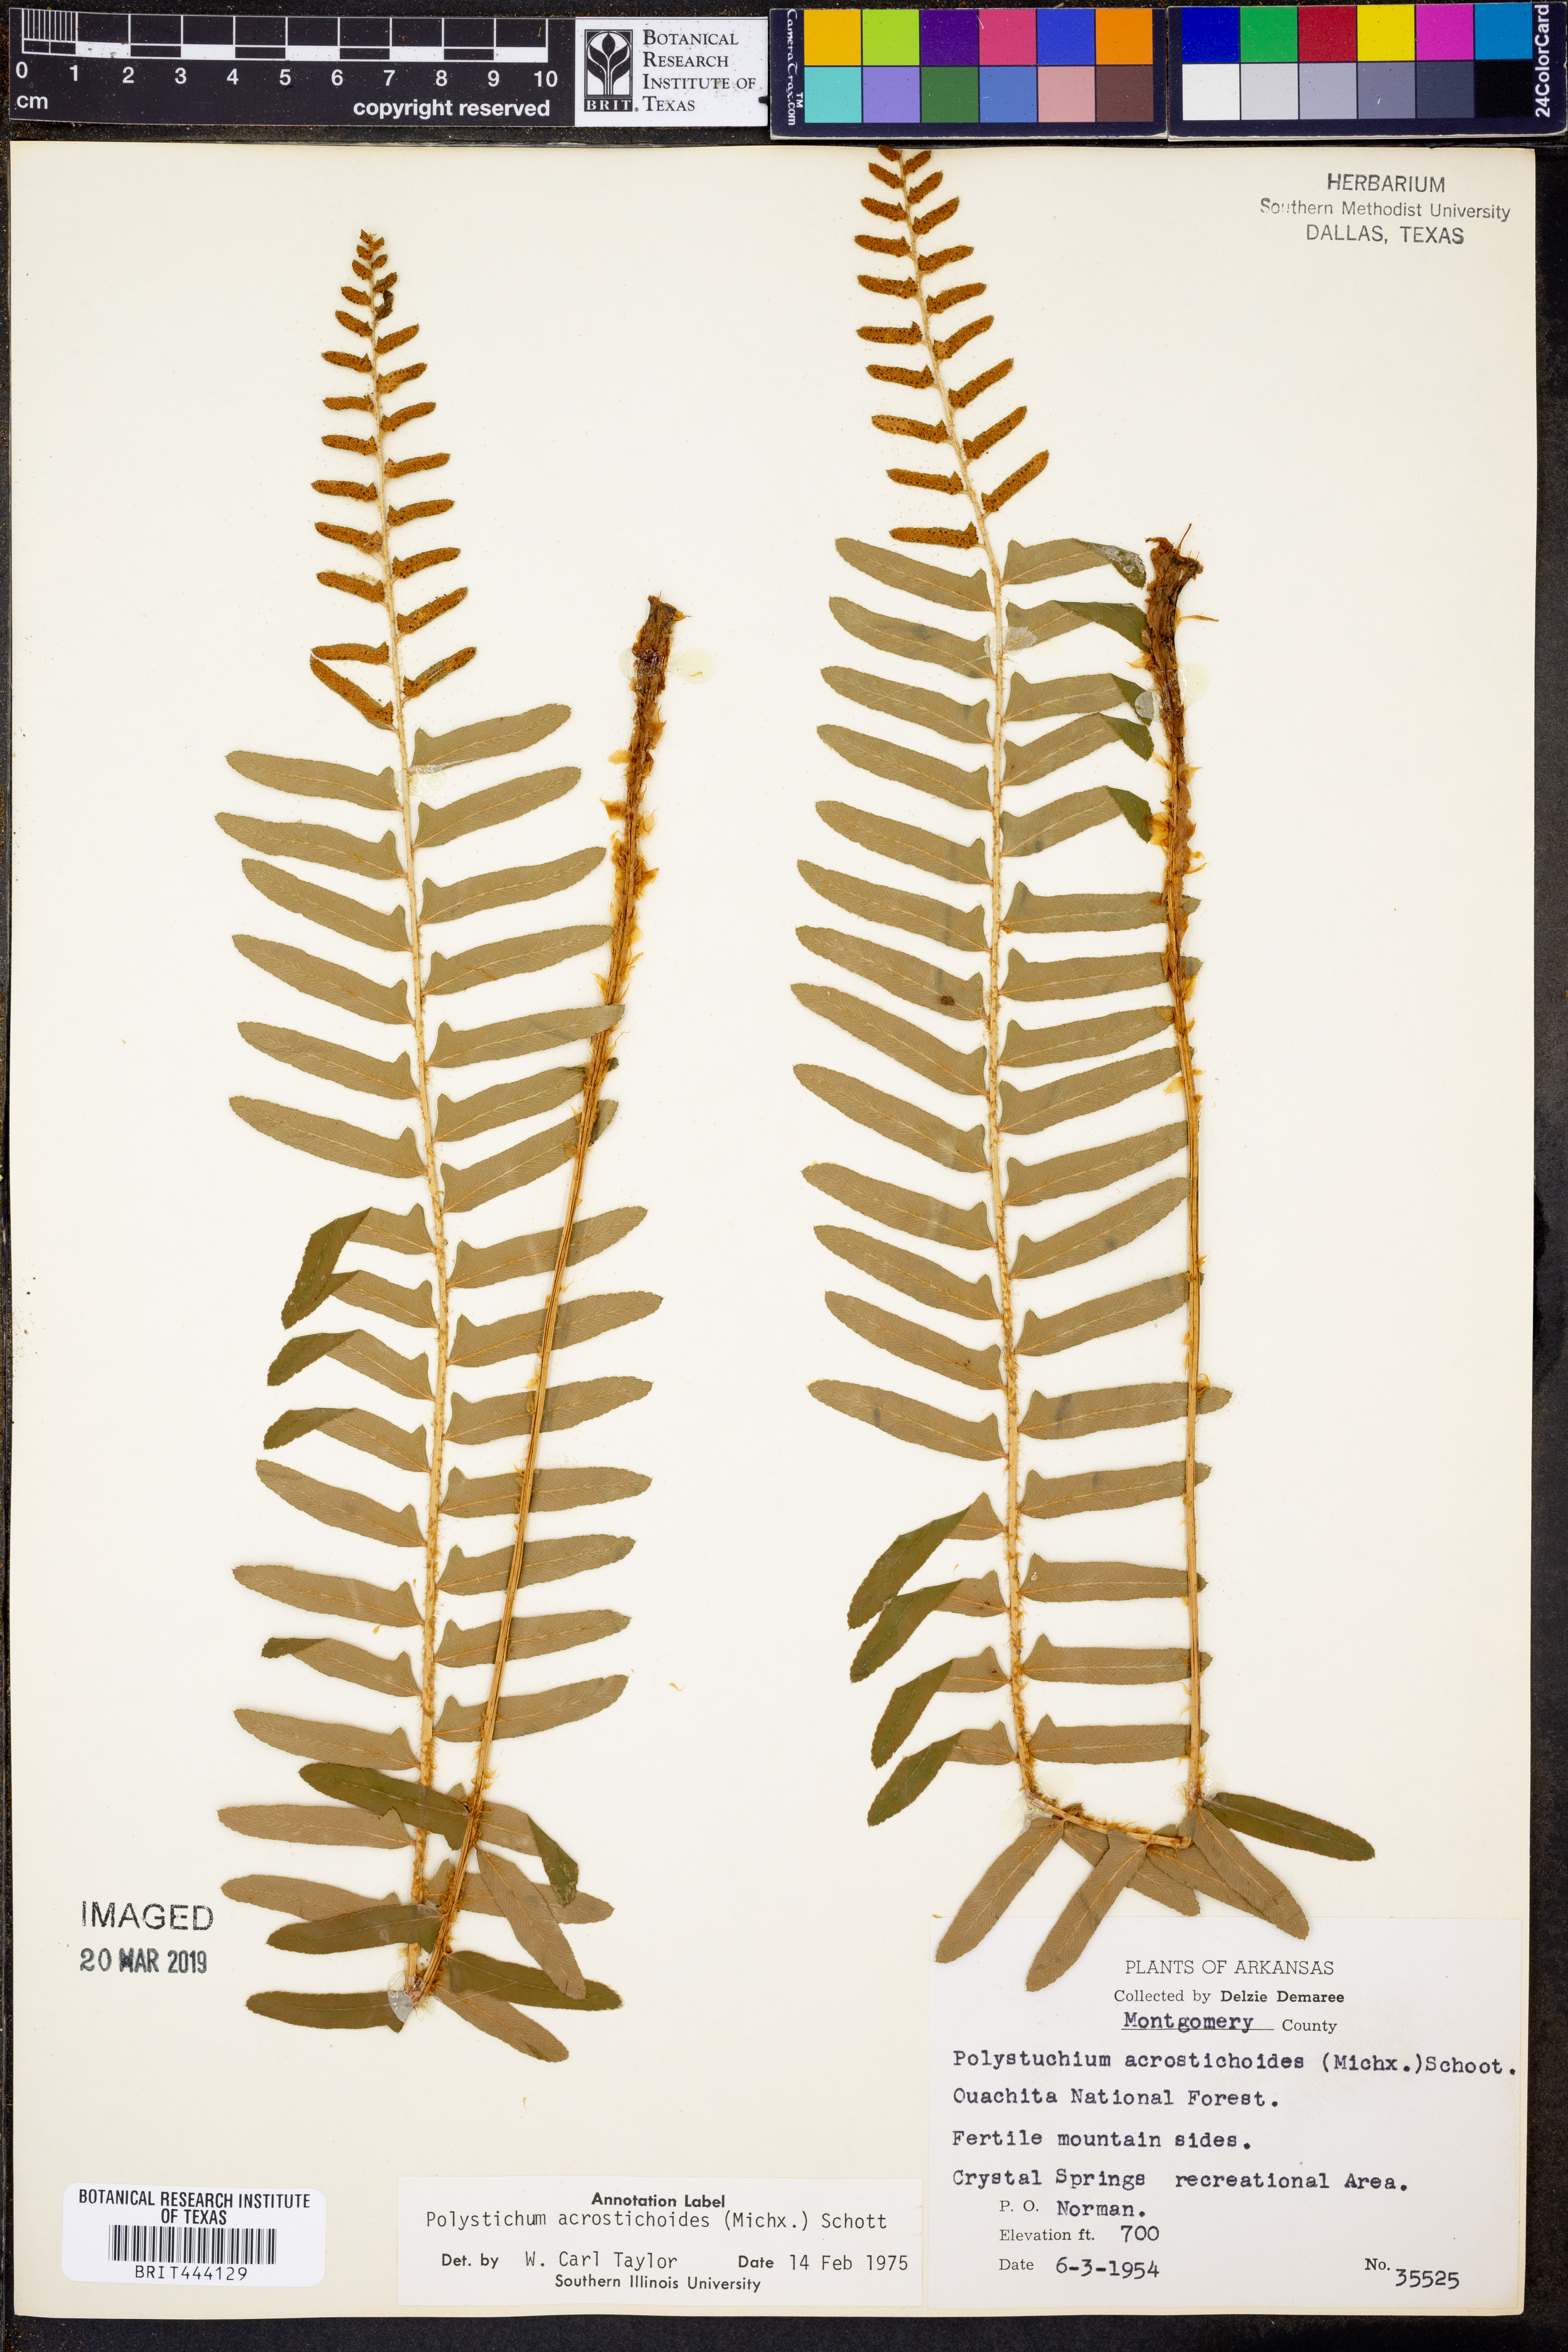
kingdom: Plantae
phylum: Tracheophyta
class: Polypodiopsida
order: Polypodiales
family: Dryopteridaceae
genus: Polystichum
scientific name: Polystichum acrostichoides
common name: Christmas fern
